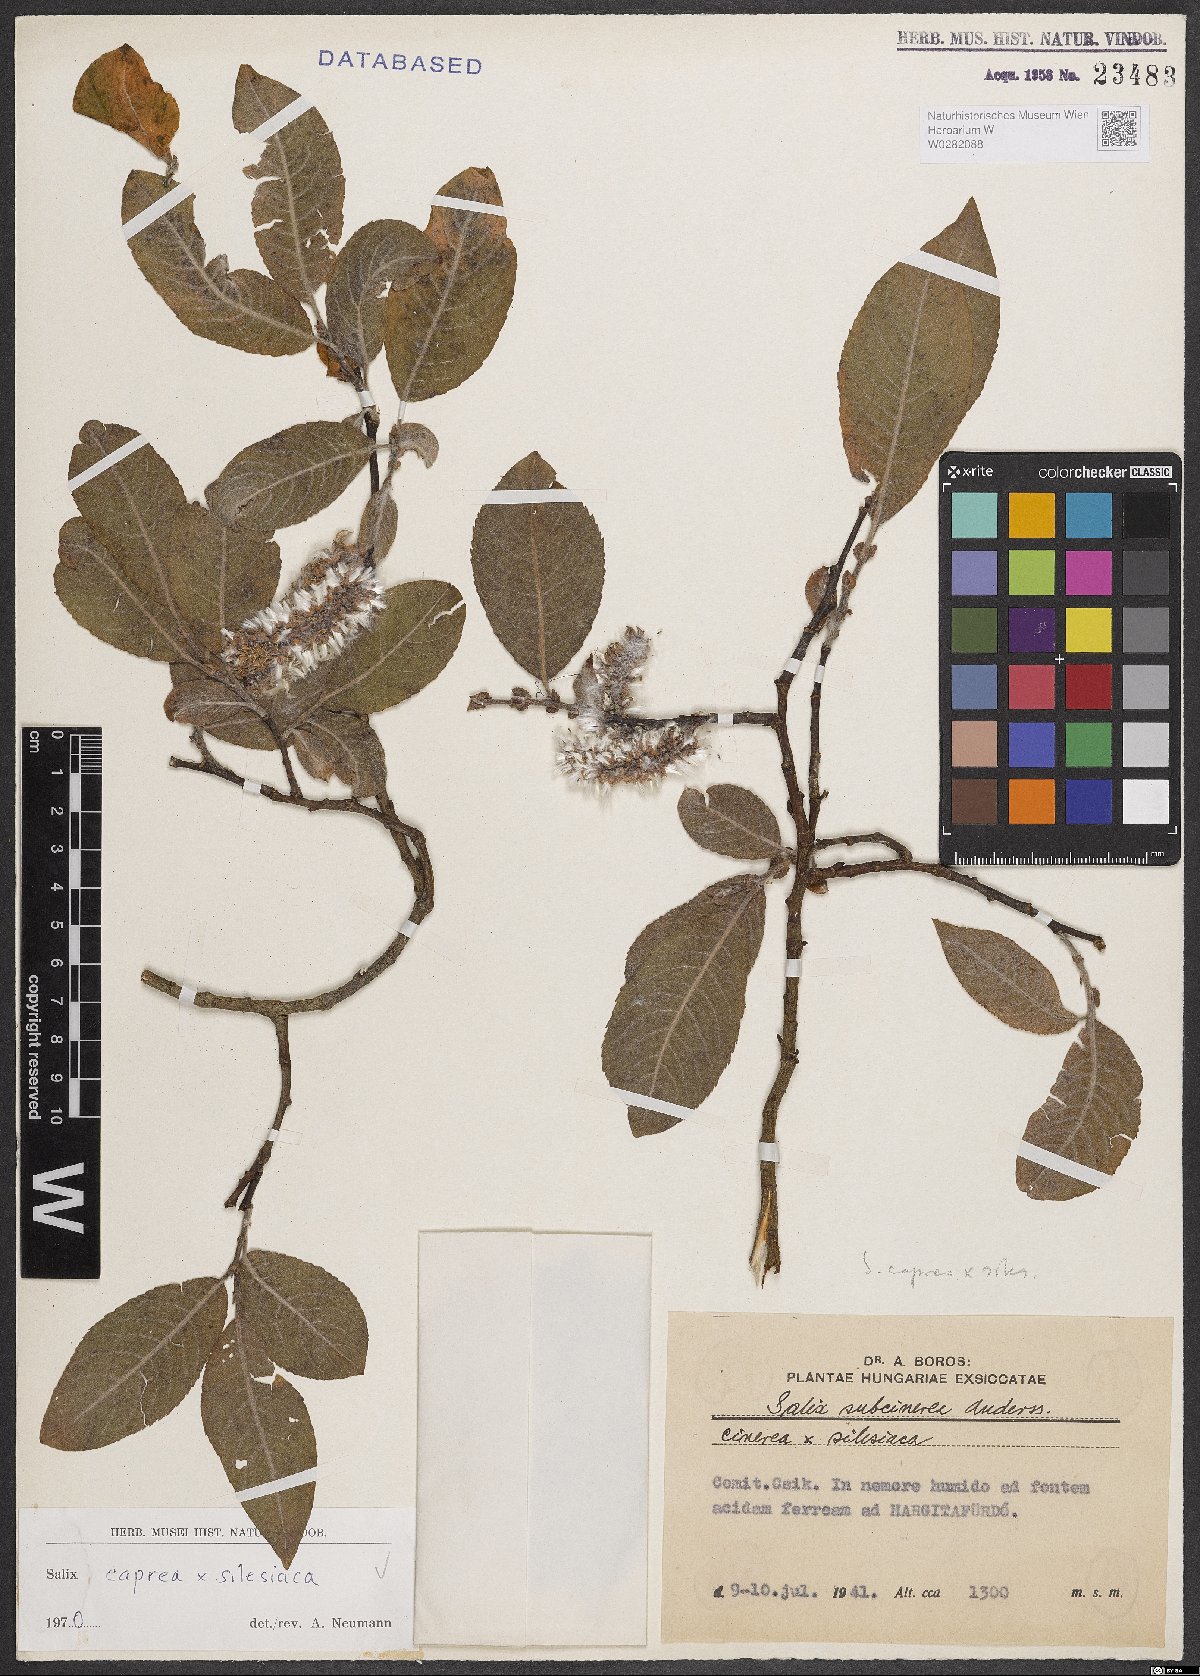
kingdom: Plantae
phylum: Tracheophyta
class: Magnoliopsida
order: Malpighiales
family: Salicaceae
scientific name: Salicaceae
